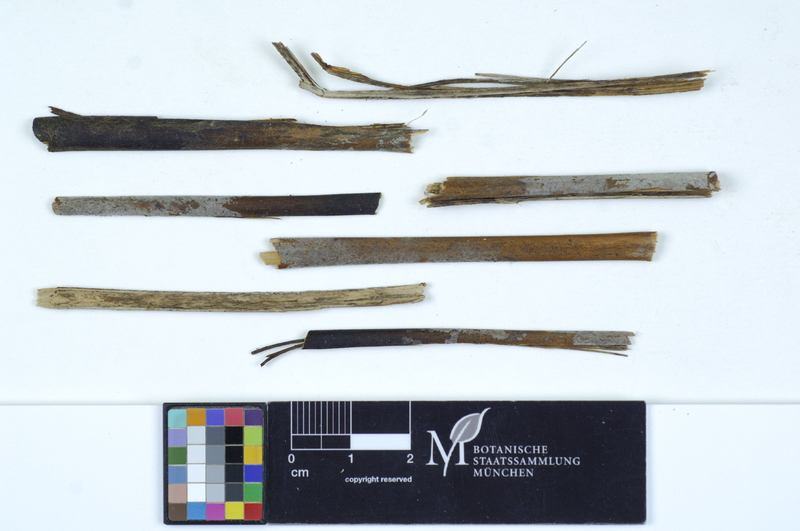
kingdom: Fungi
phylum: Basidiomycota
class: Agaricomycetes
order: Cantharellales
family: Ceratobasidiaceae
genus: Ceratobasidium
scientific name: Ceratobasidium cornigerum
